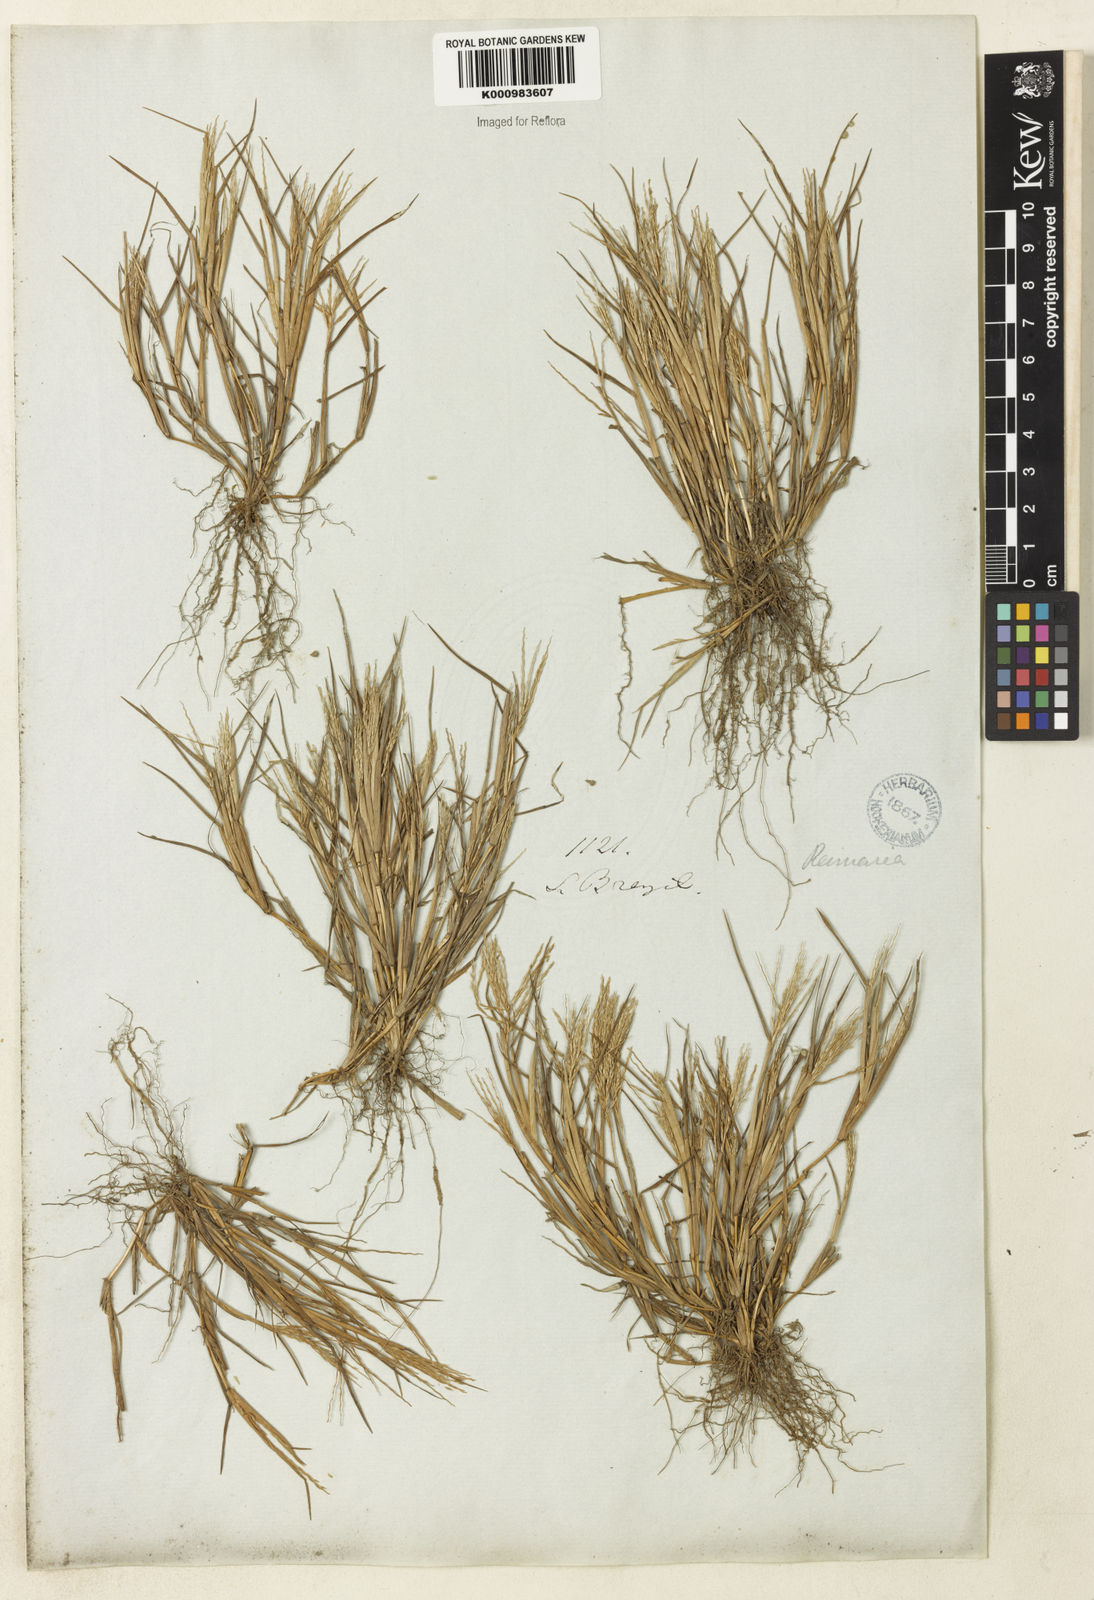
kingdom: Plantae
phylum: Tracheophyta
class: Liliopsida
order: Poales
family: Poaceae
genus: Paspalum
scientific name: Paspalum
